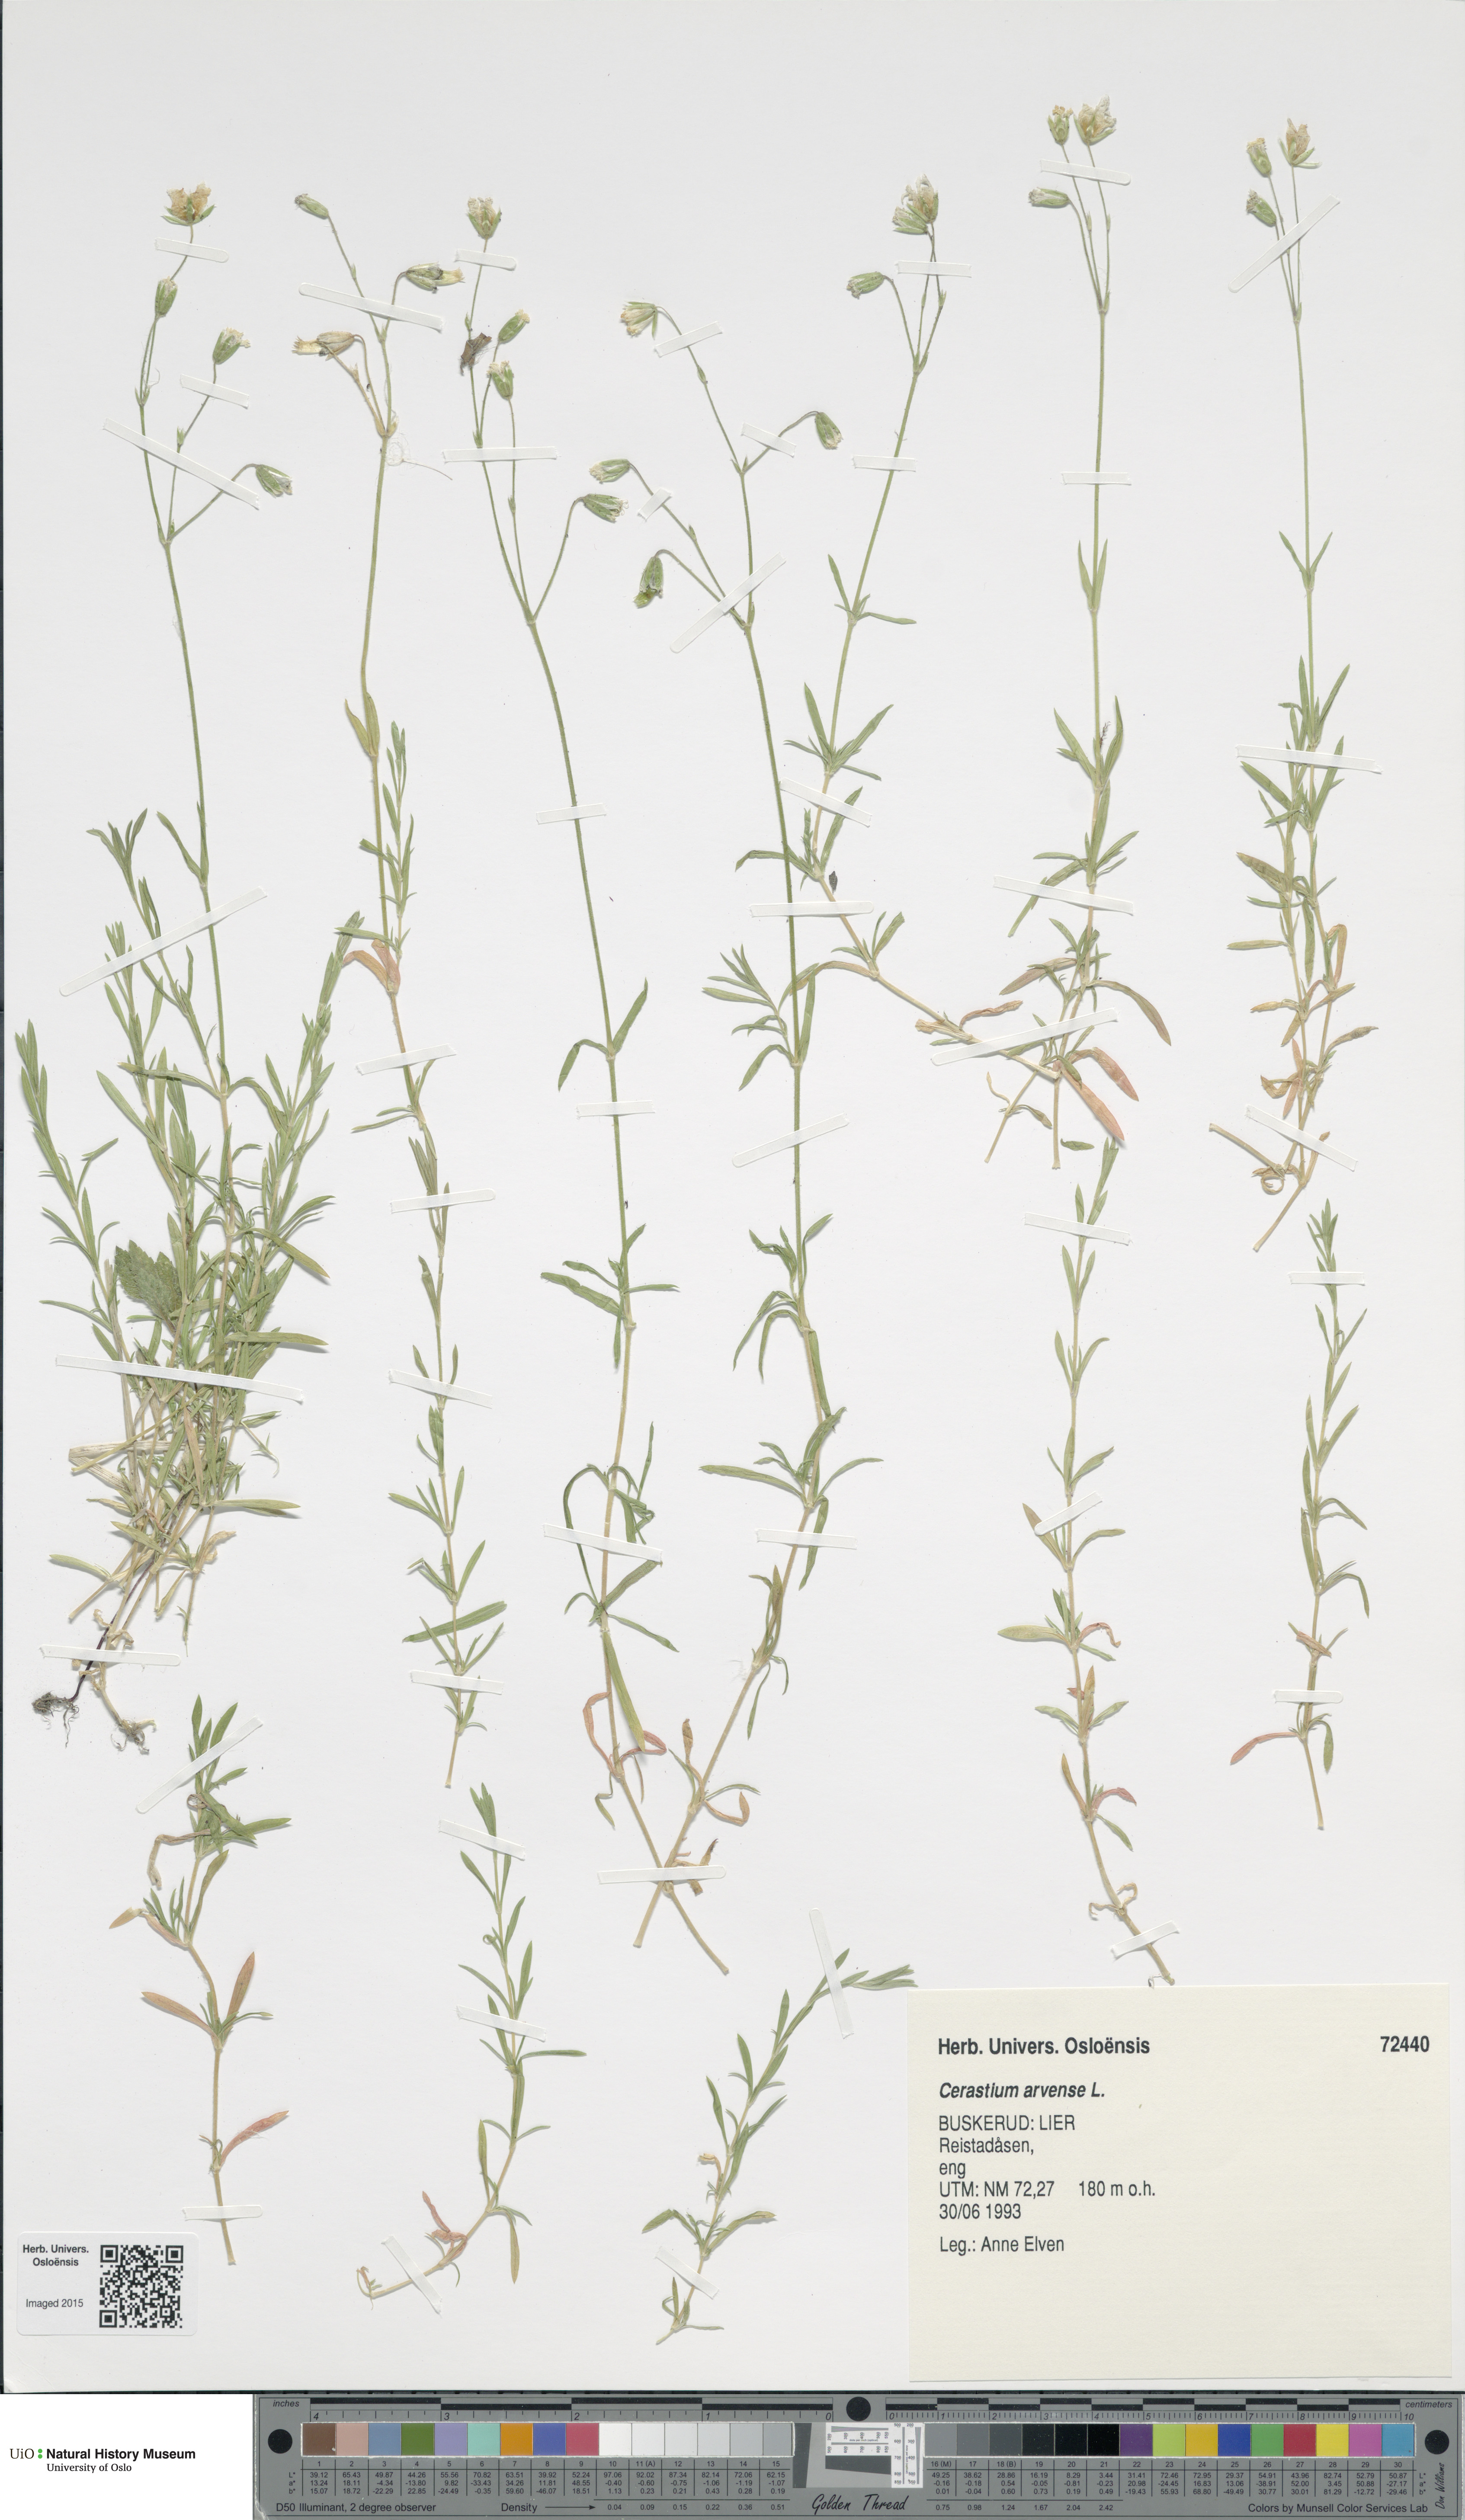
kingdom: Plantae
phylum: Tracheophyta
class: Magnoliopsida
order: Caryophyllales
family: Caryophyllaceae
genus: Cerastium
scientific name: Cerastium arvense
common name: Field mouse-ear
